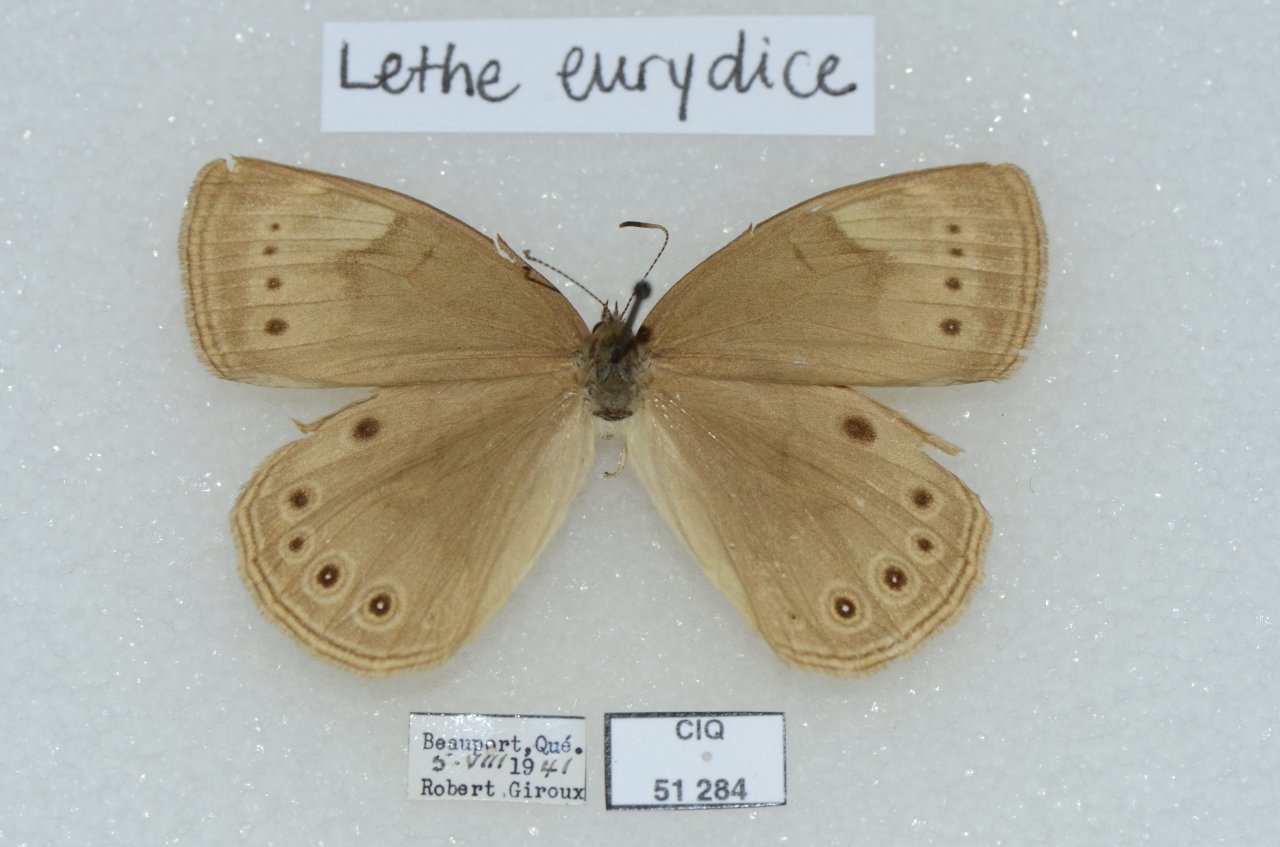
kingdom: Animalia
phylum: Arthropoda
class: Insecta
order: Lepidoptera
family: Nymphalidae
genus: Lethe
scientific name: Lethe eurydice
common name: Eyed Brown
